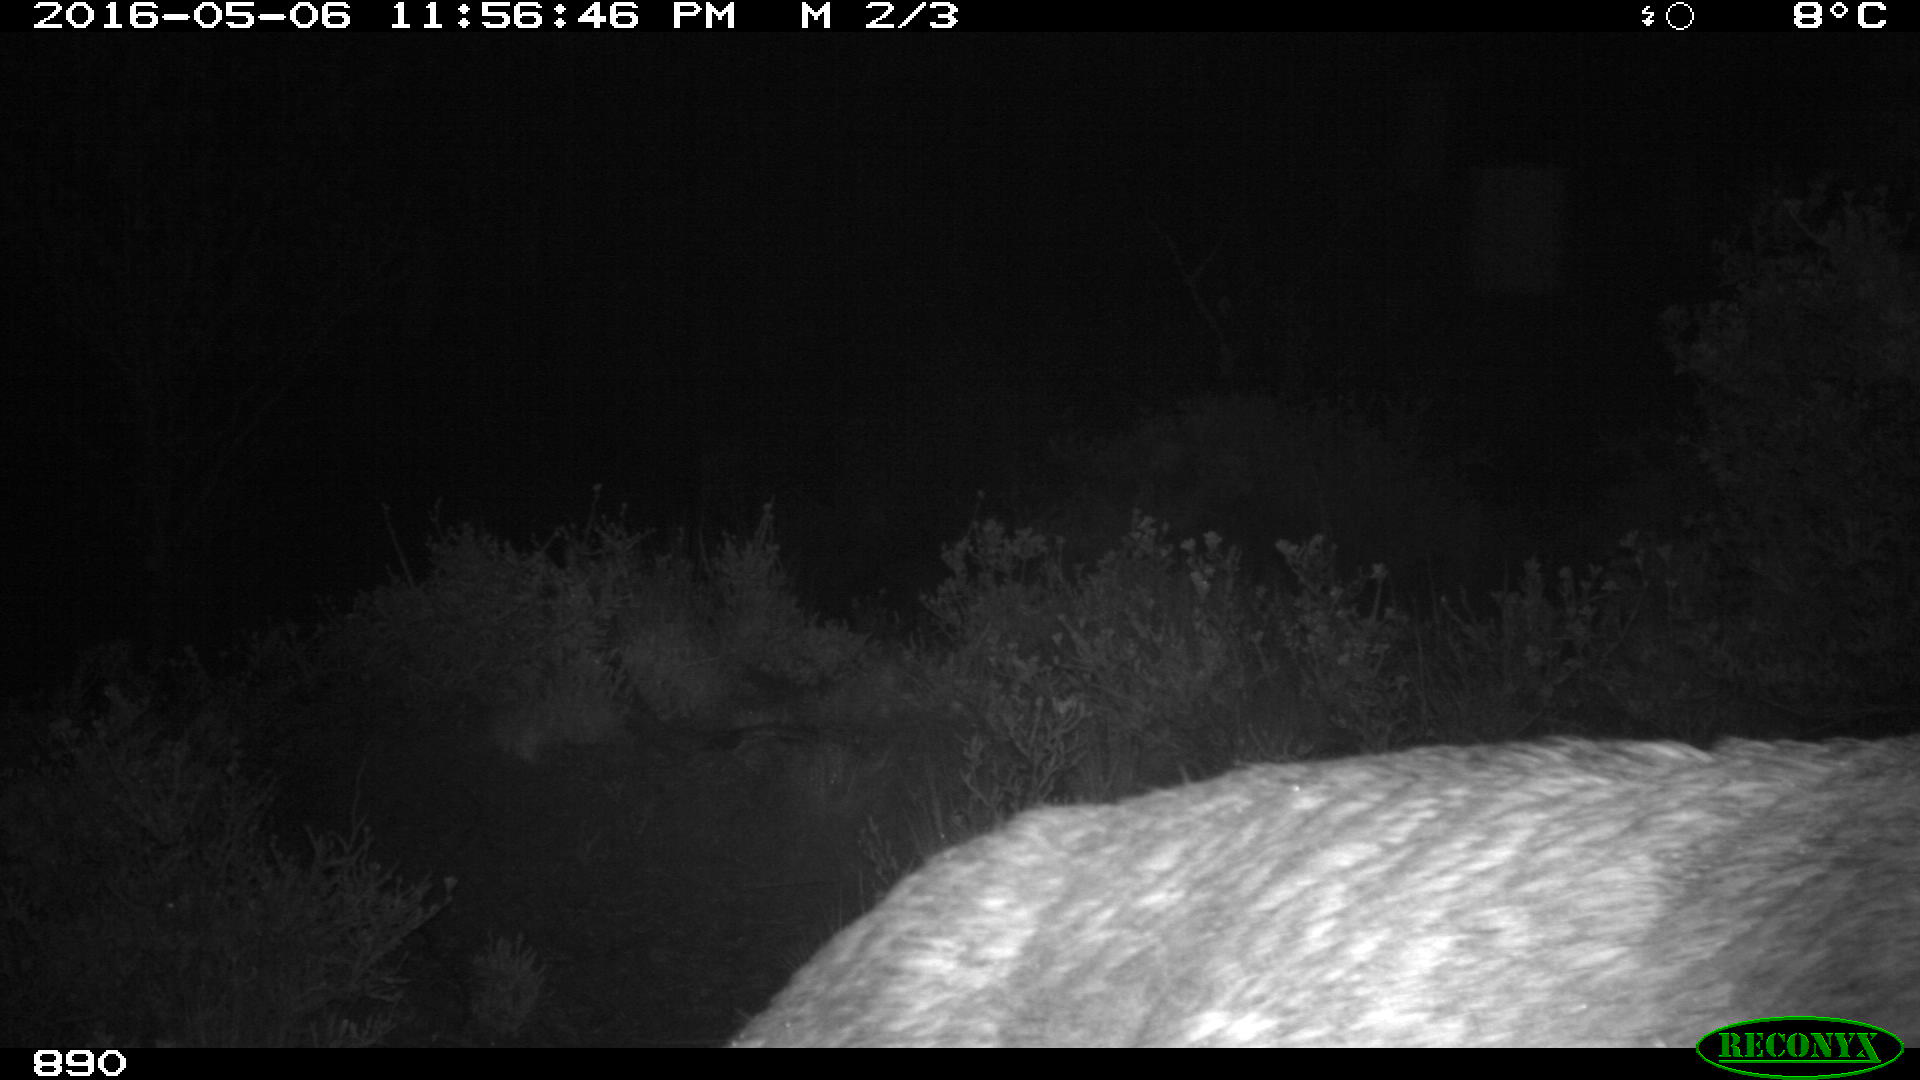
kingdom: Animalia
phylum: Chordata
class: Mammalia
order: Artiodactyla
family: Cervidae
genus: Capreolus
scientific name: Capreolus capreolus
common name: Western roe deer
